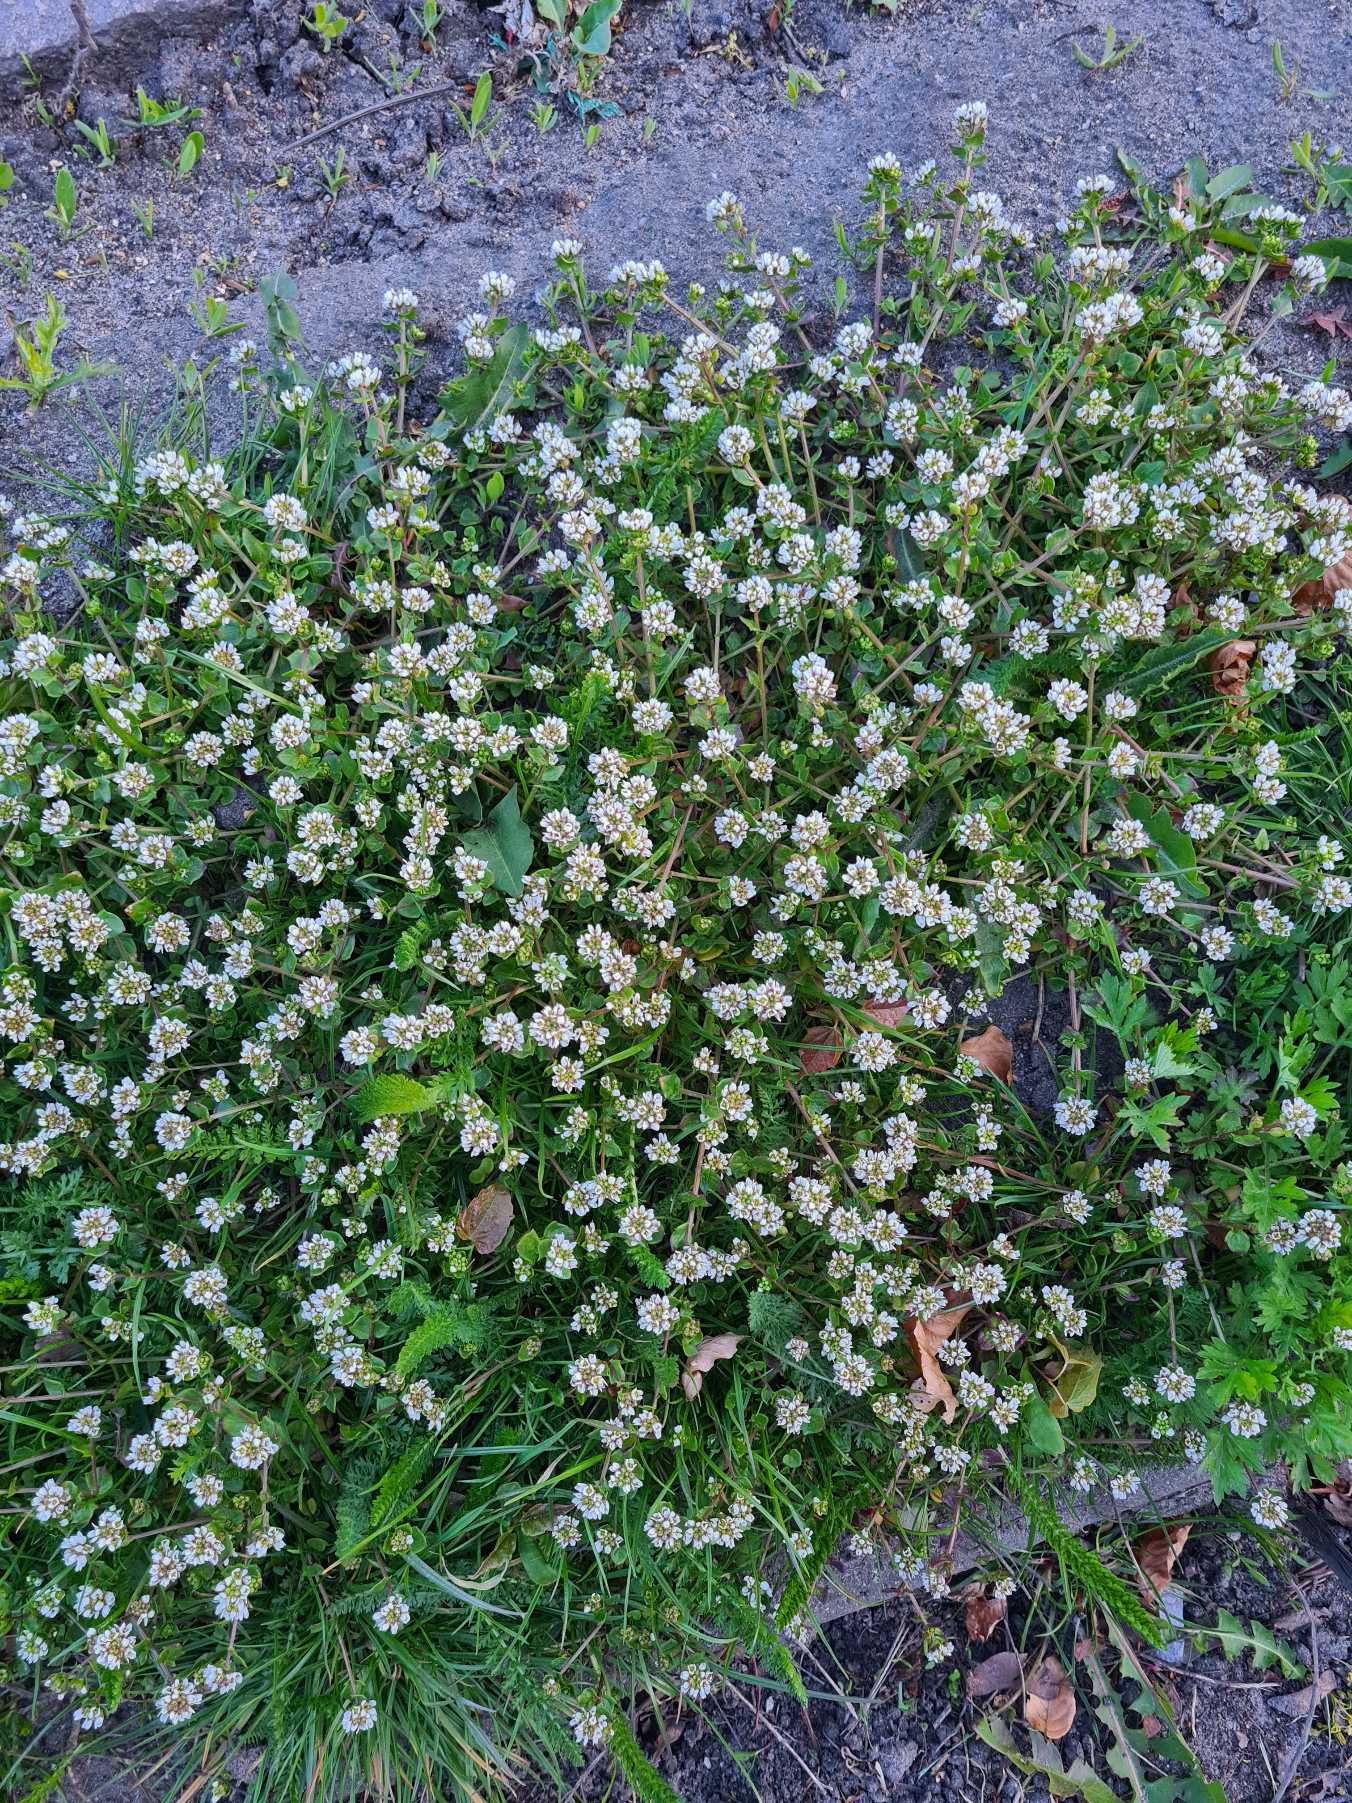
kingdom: Plantae
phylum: Tracheophyta
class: Magnoliopsida
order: Brassicales
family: Brassicaceae
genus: Cochlearia
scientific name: Cochlearia danica
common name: Dansk kokleare
